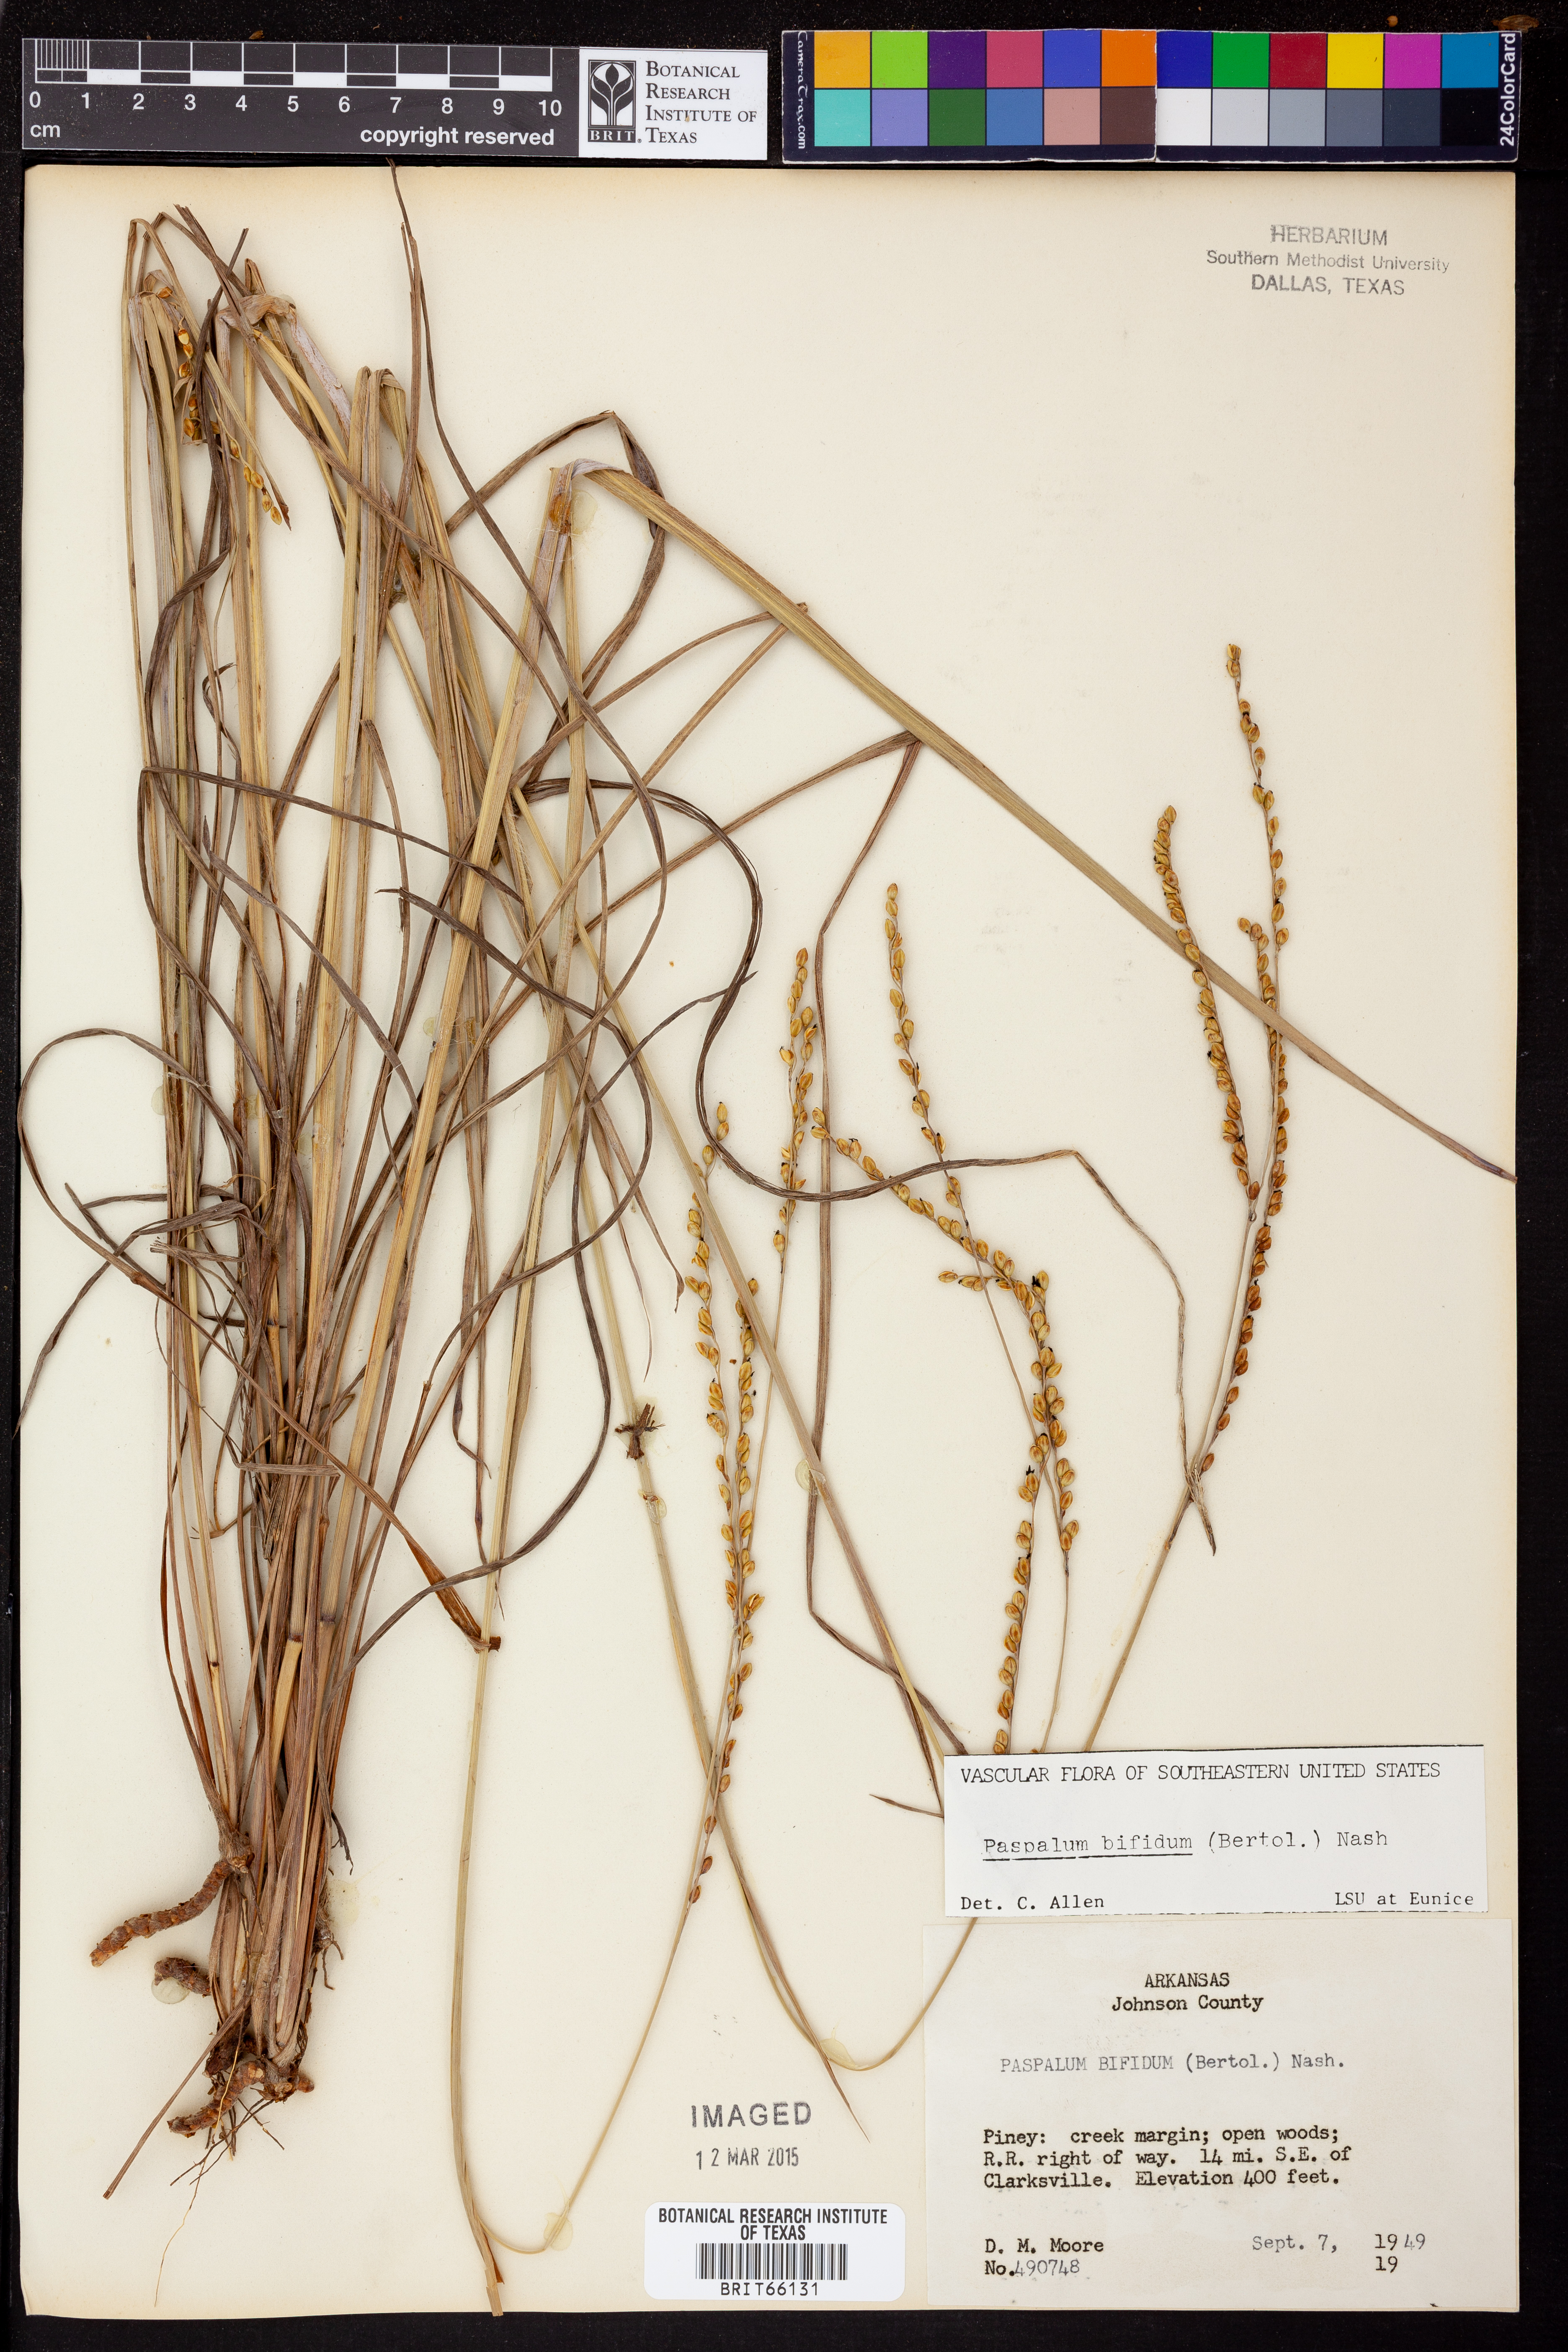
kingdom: Plantae
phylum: Tracheophyta
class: Liliopsida
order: Poales
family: Poaceae
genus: Paspalum
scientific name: Paspalum bifidum
